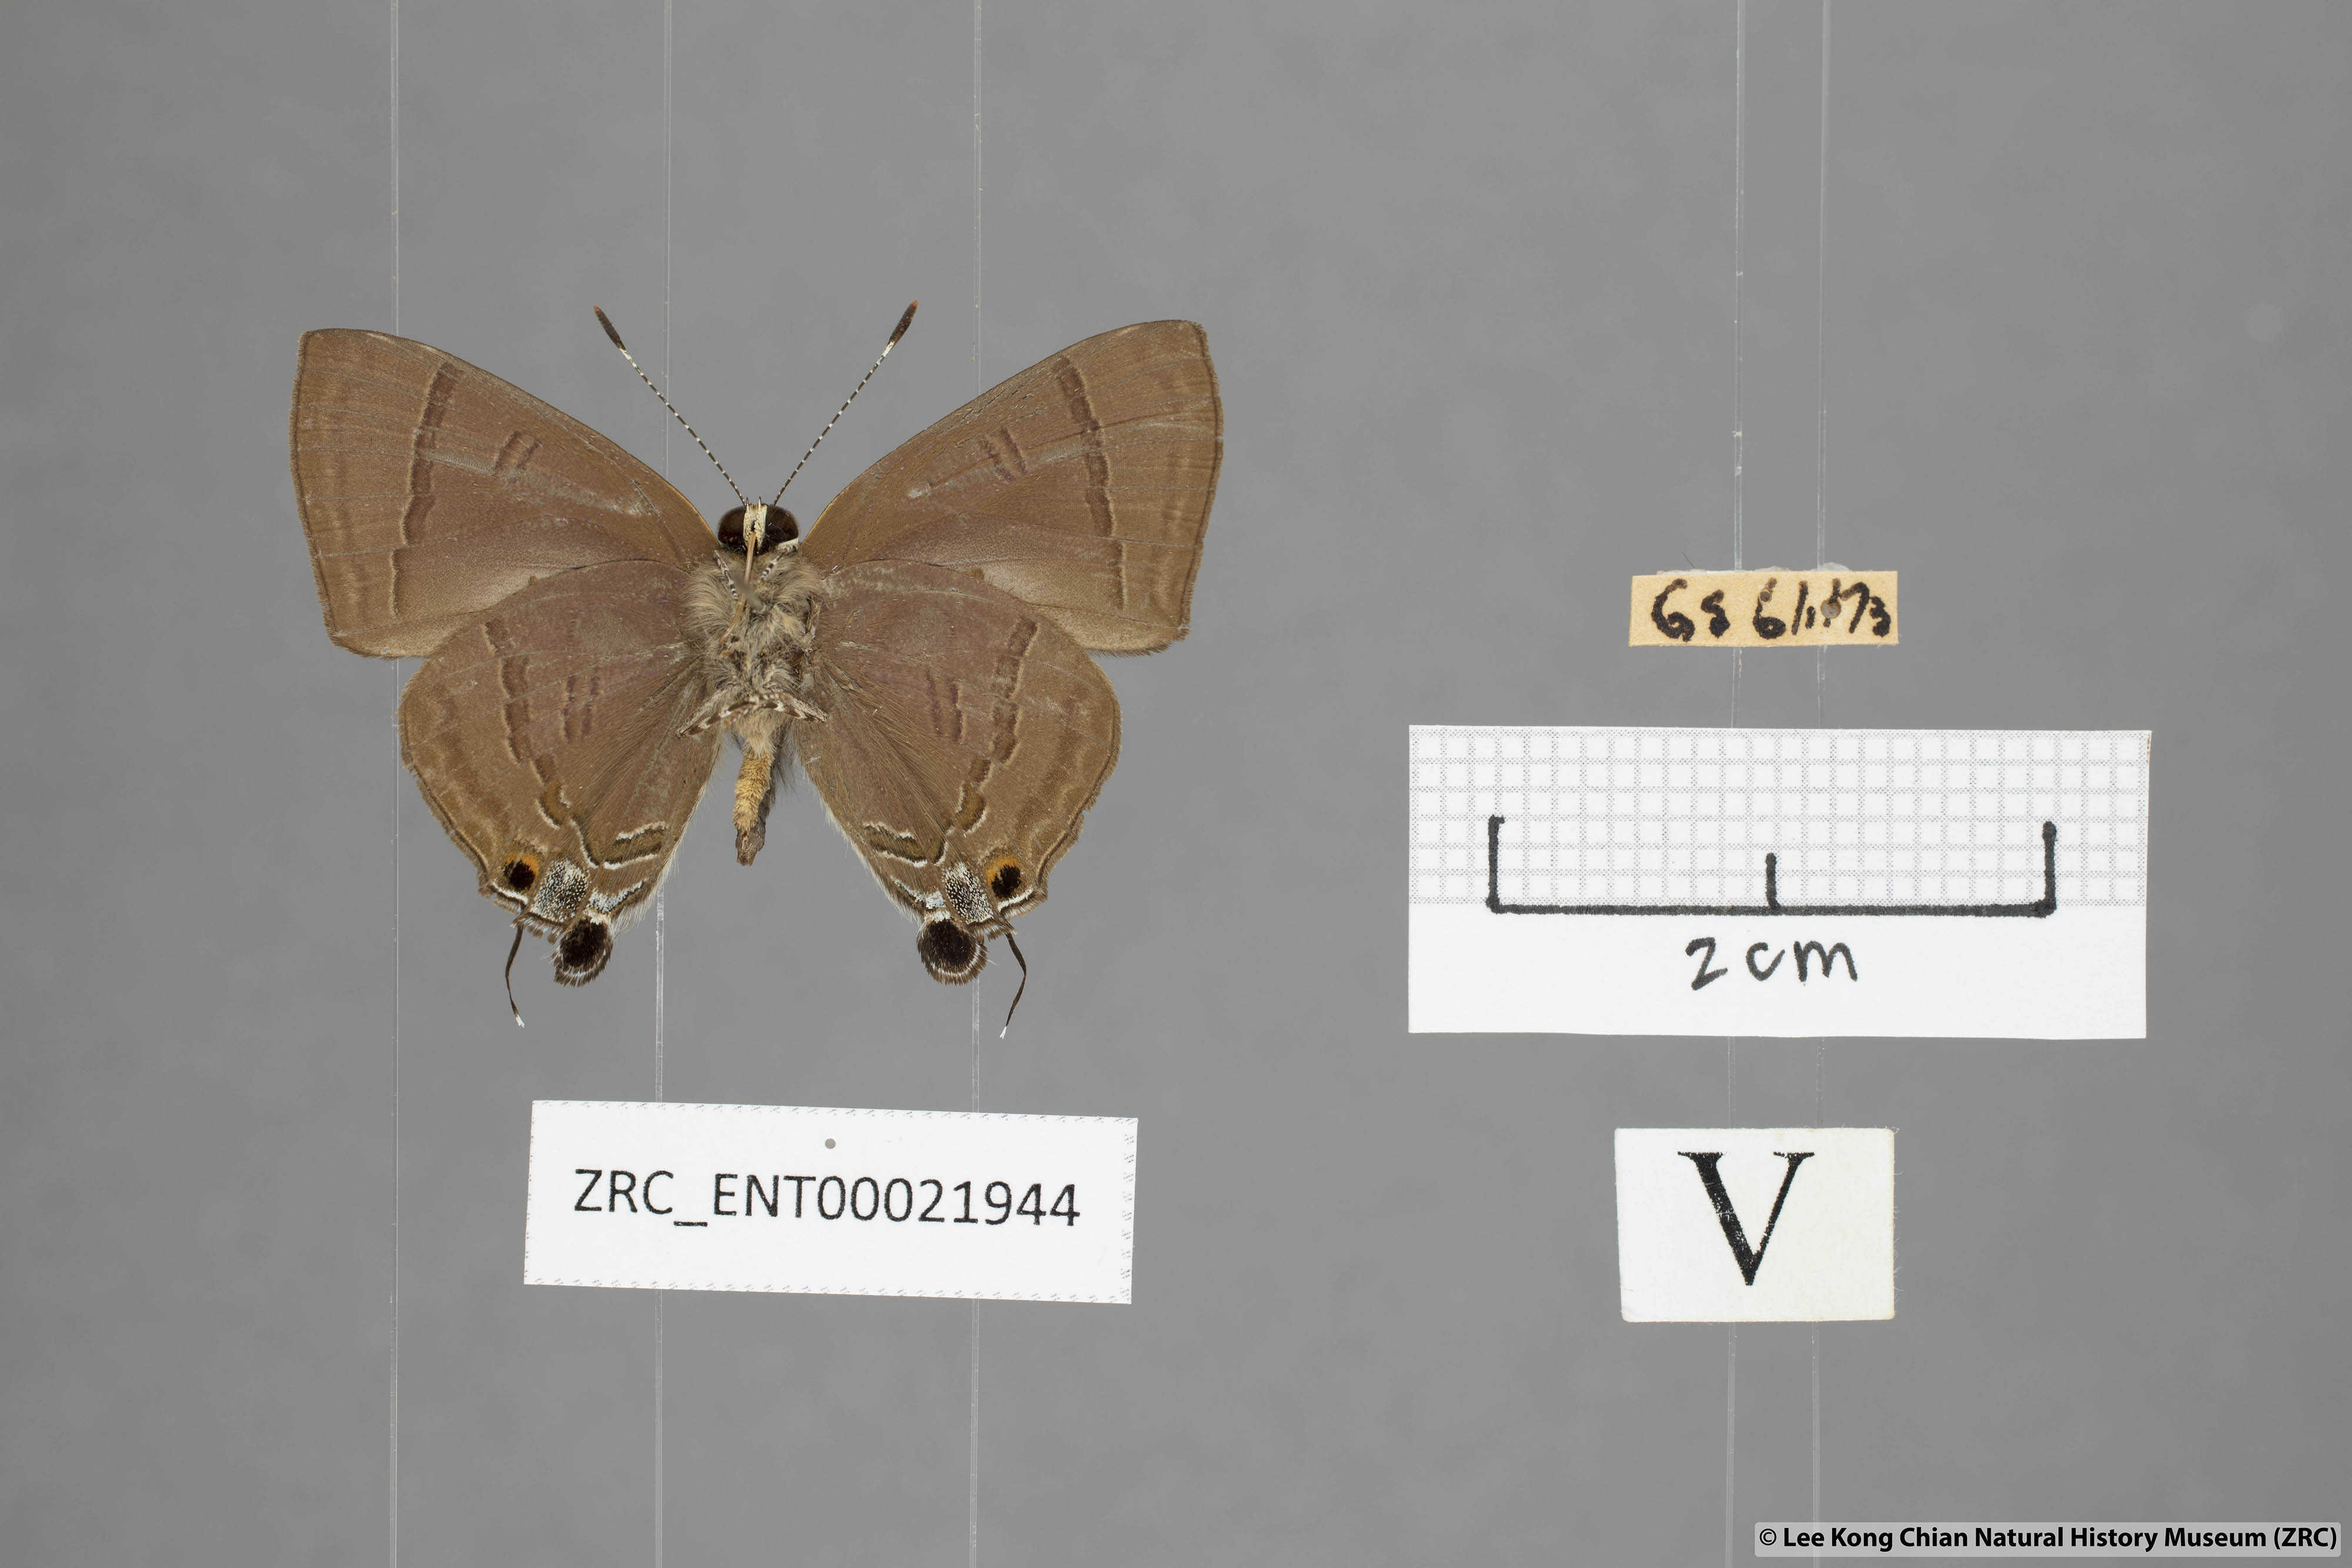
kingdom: Animalia
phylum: Arthropoda
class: Insecta
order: Lepidoptera
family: Lycaenidae
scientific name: Lycaenidae
